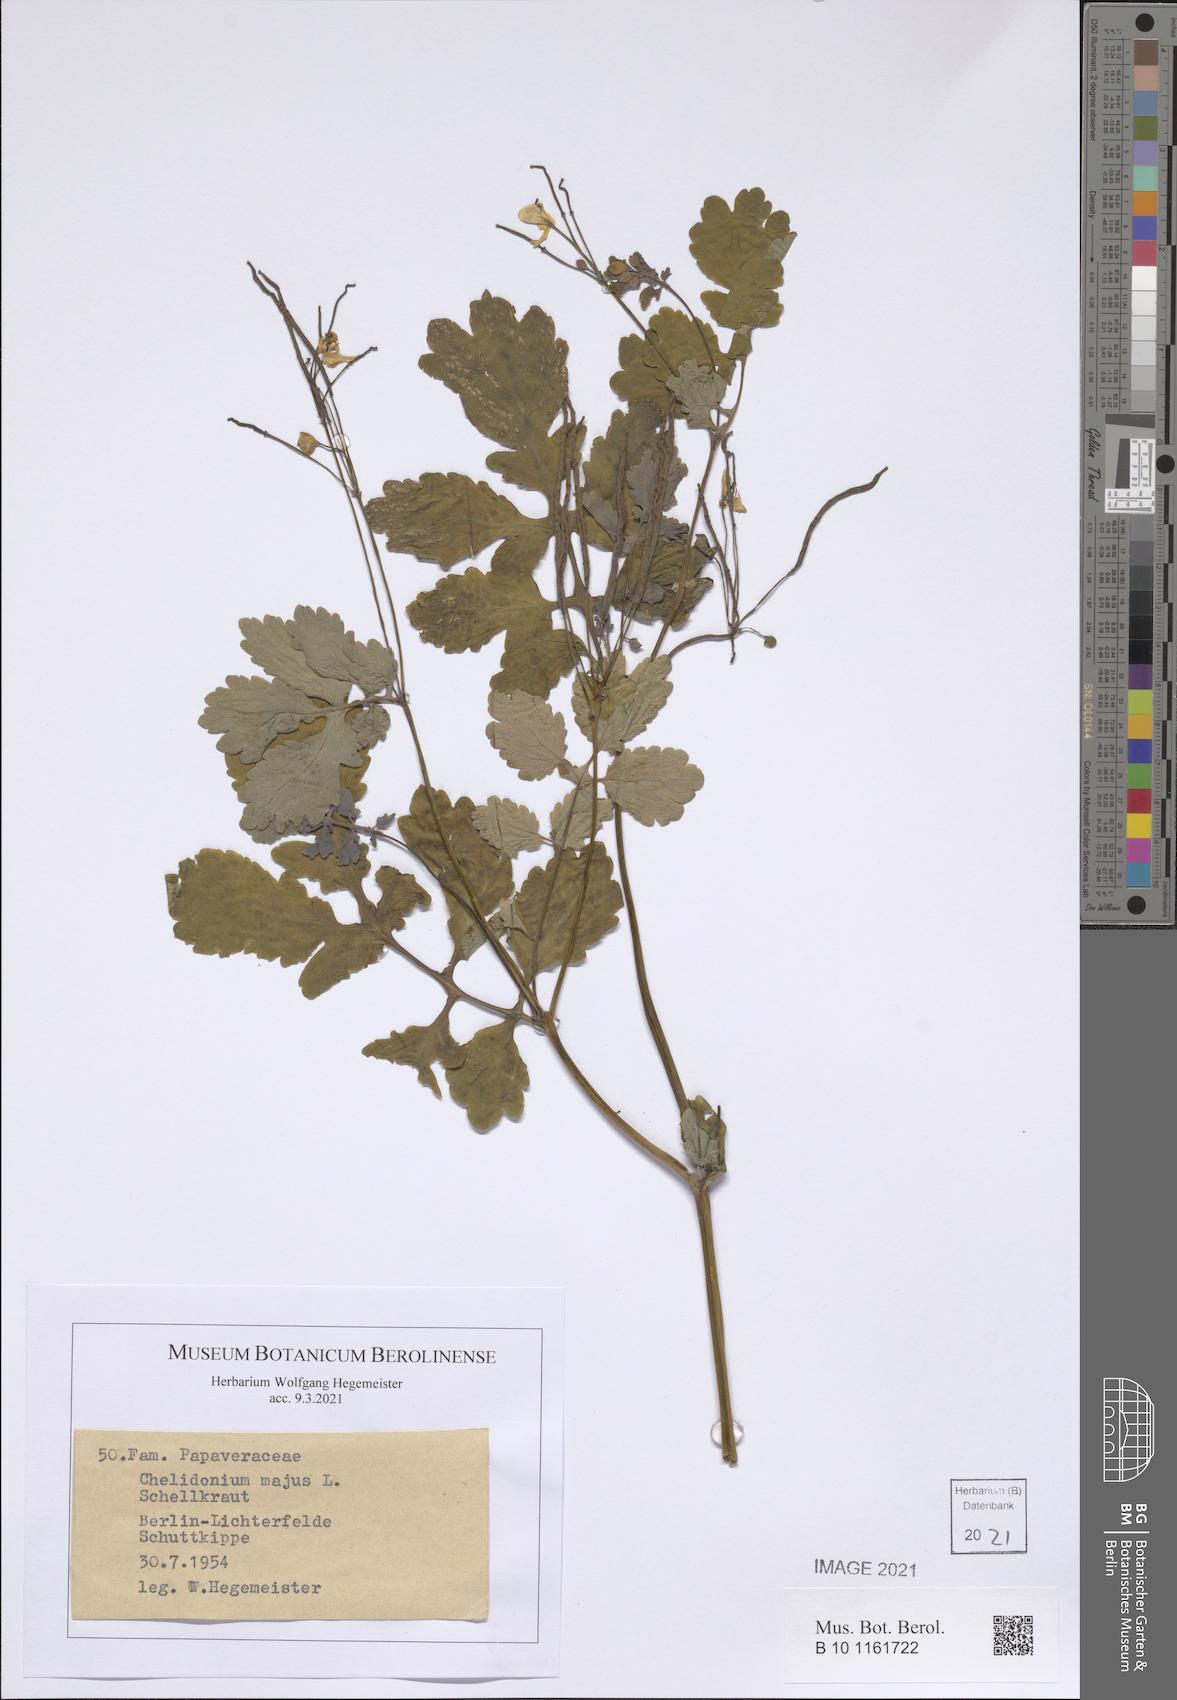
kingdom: Plantae
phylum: Tracheophyta
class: Magnoliopsida
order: Ranunculales
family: Papaveraceae
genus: Chelidonium
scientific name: Chelidonium majus
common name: Greater celandine
